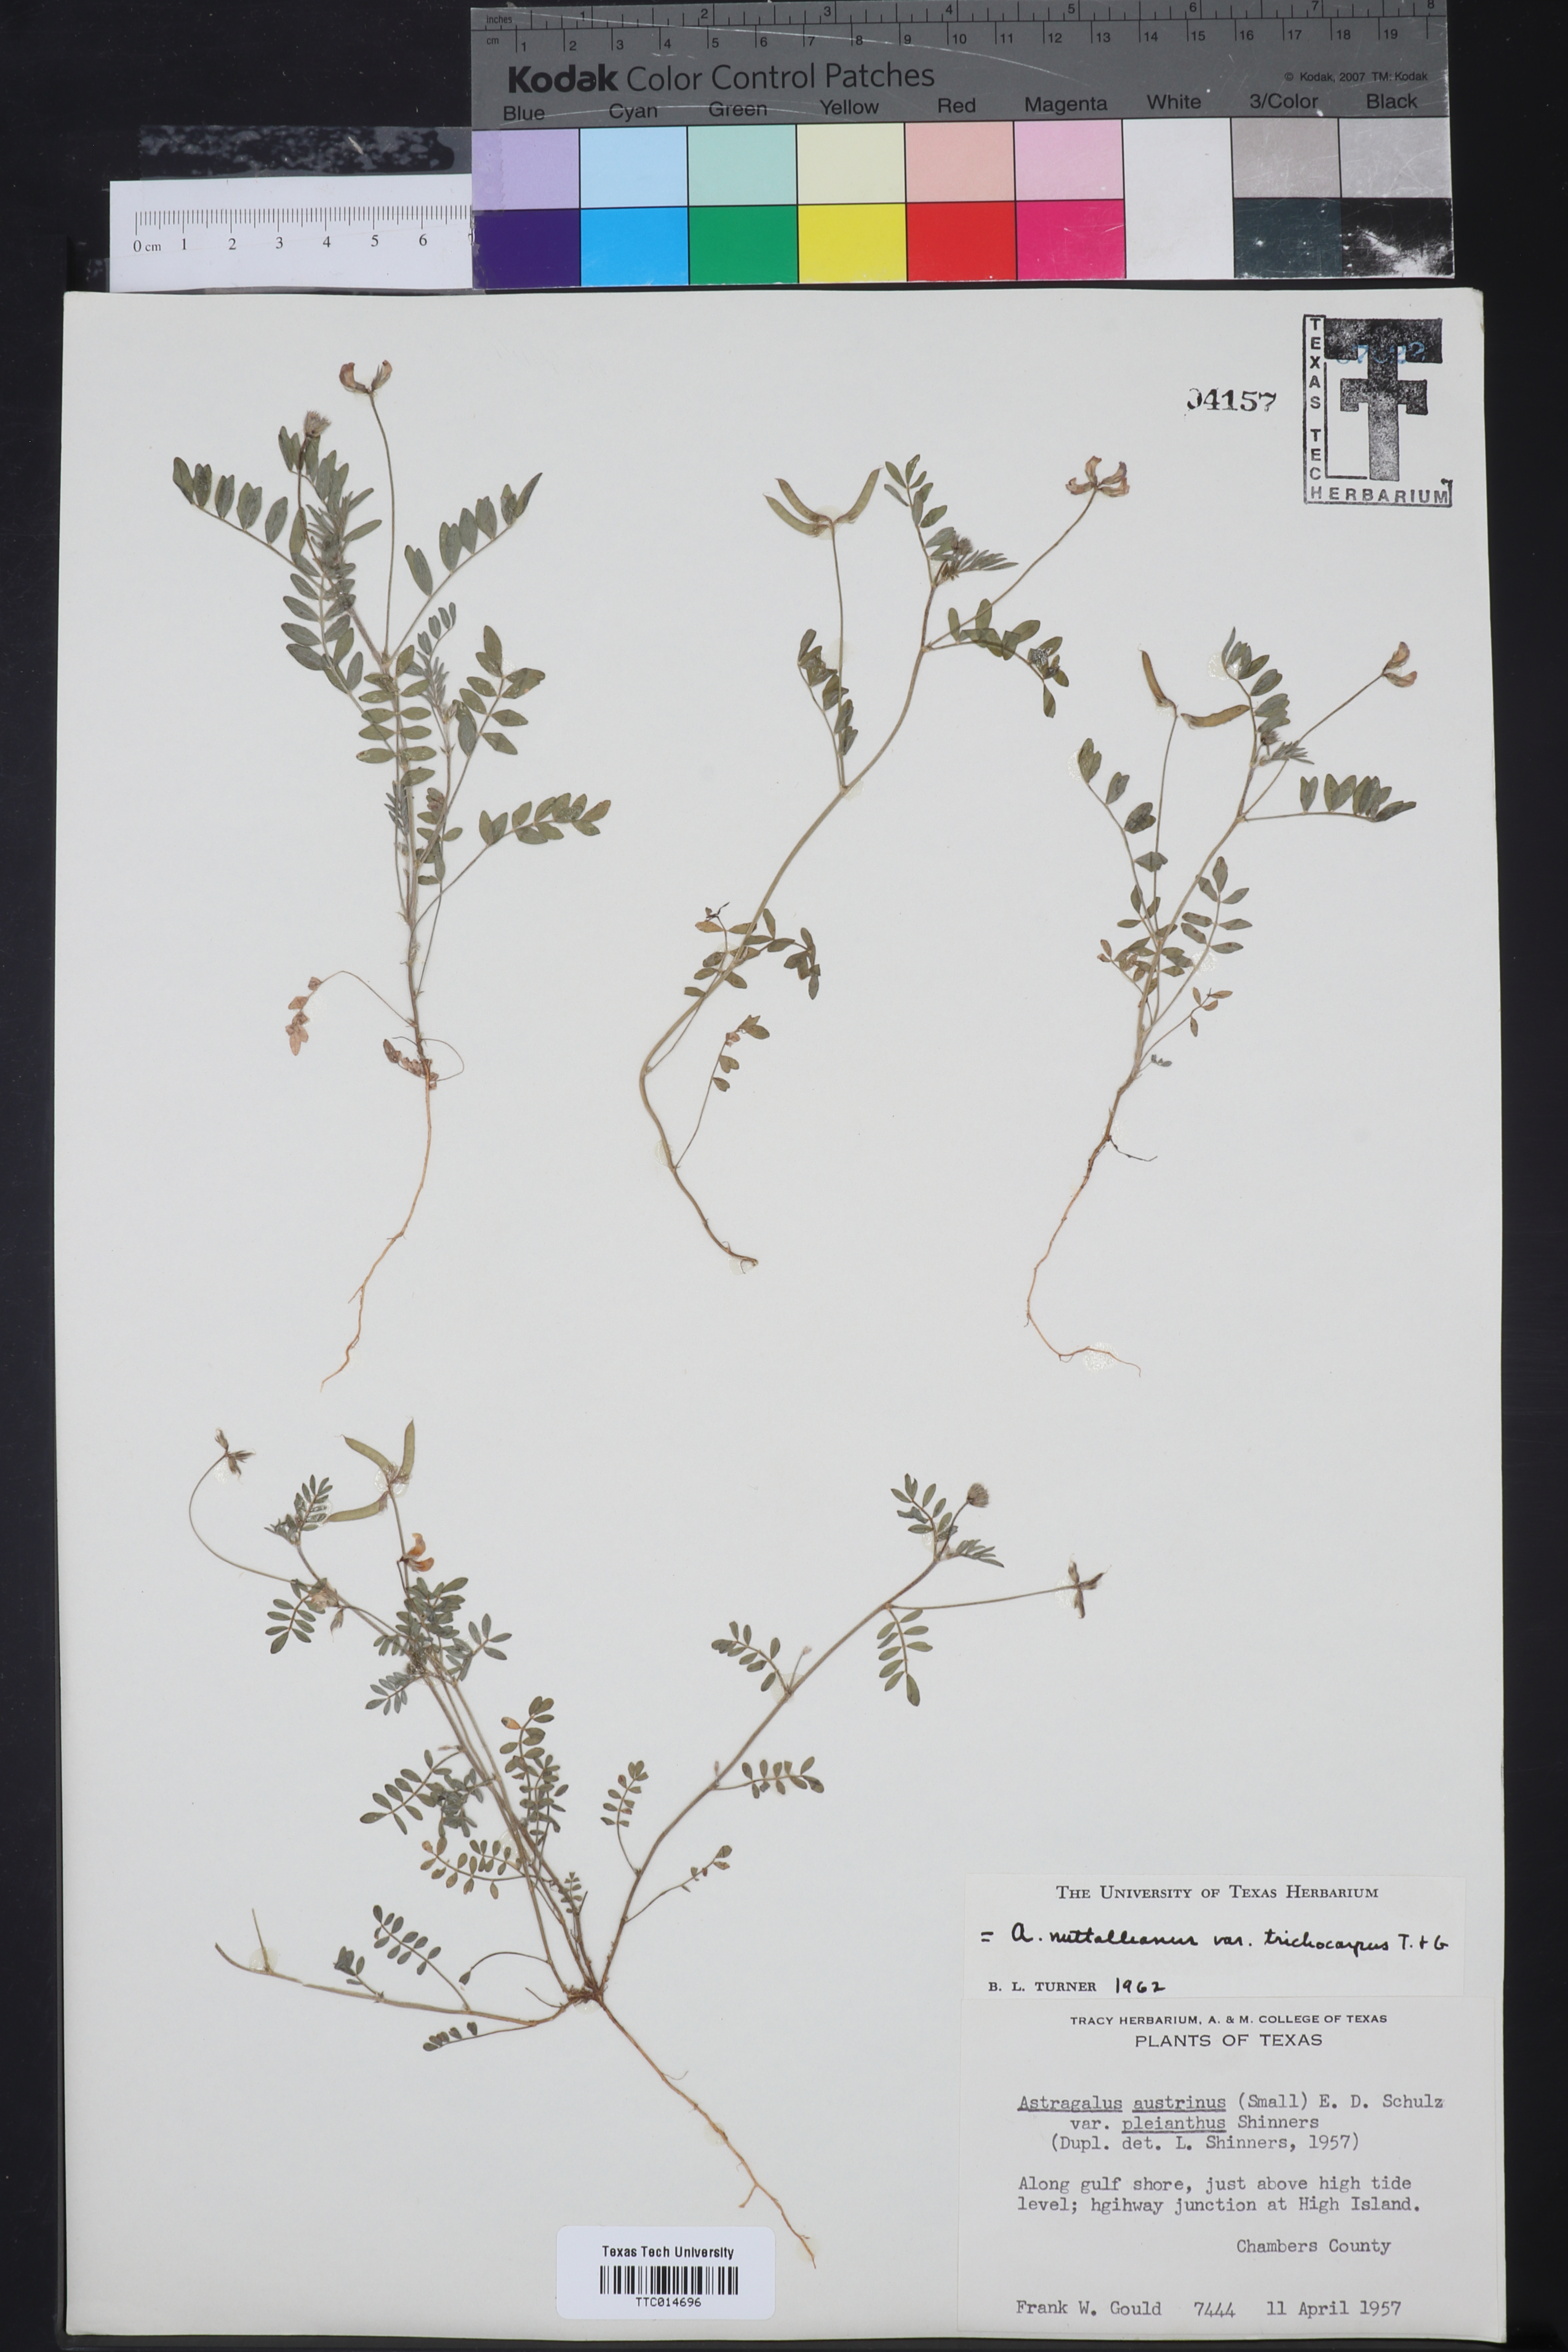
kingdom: Plantae
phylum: Tracheophyta
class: Magnoliopsida
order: Fabales
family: Fabaceae
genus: Astragalus
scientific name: Astragalus nuttallianus
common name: Smallflowered milkvetch
